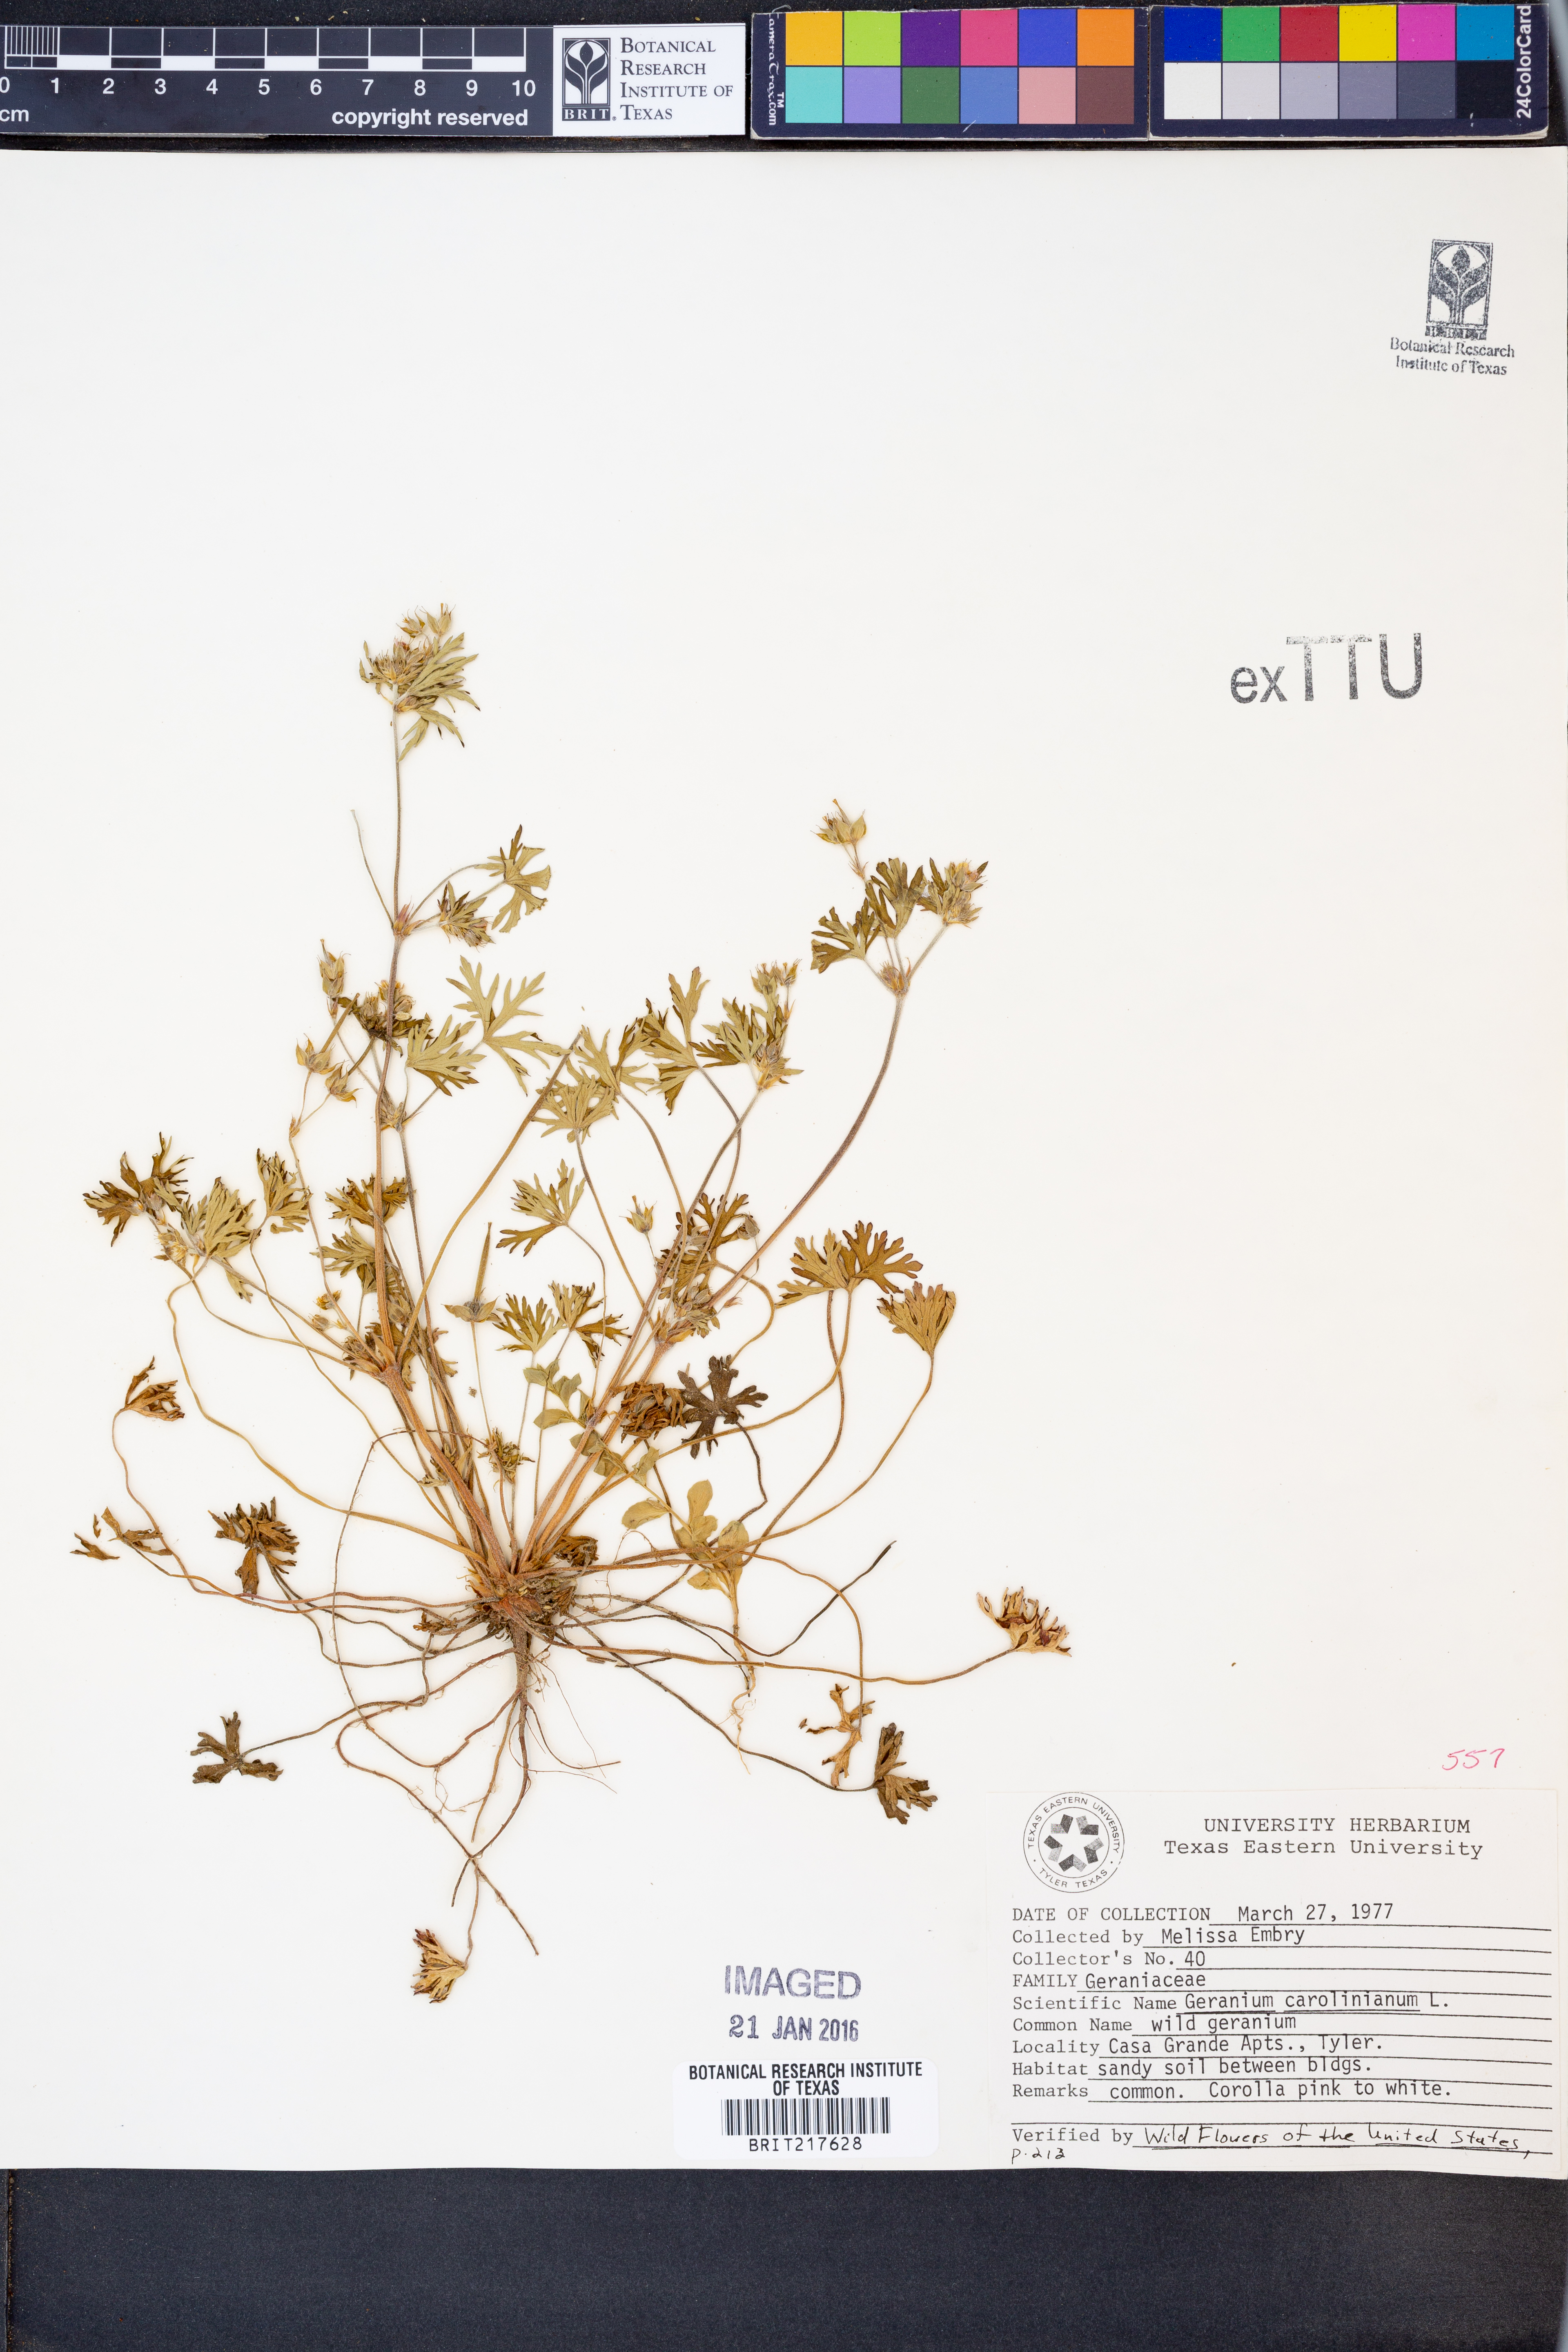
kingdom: Plantae
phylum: Tracheophyta
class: Magnoliopsida
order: Geraniales
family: Geraniaceae
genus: Geranium
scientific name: Geranium carolinianum
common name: Carolina crane's-bill
